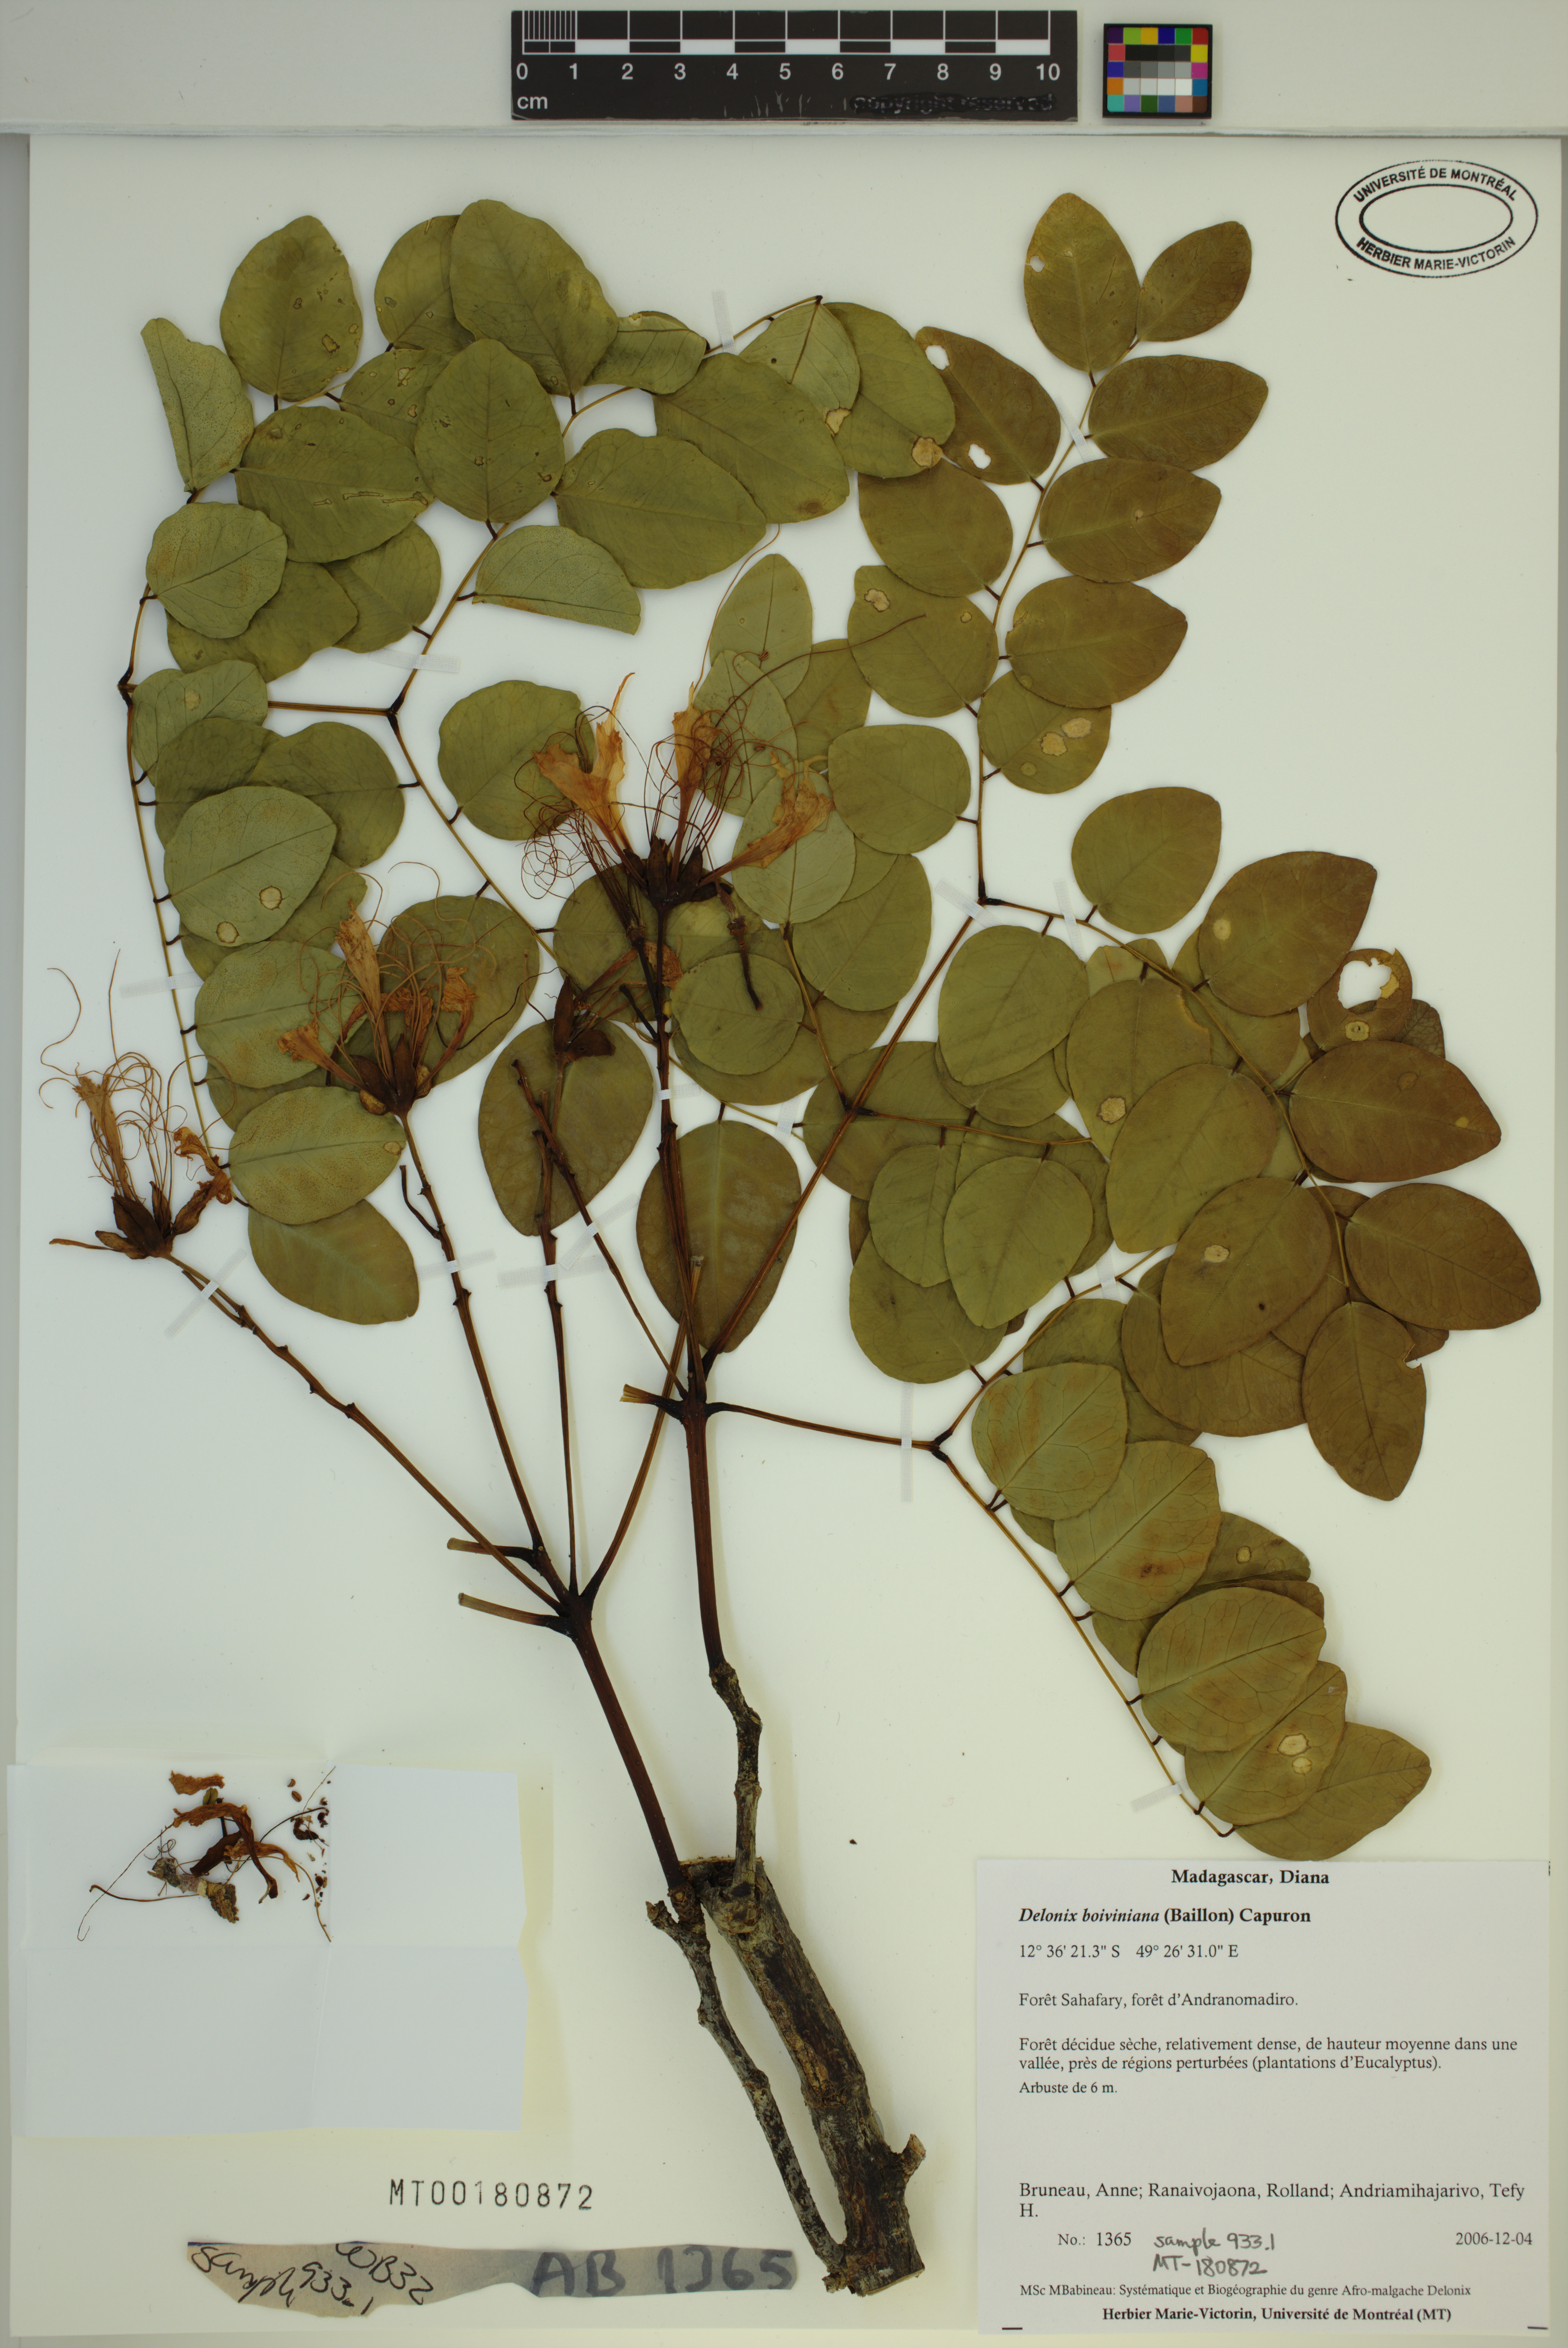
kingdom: Plantae
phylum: Tracheophyta
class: Magnoliopsida
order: Fabales
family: Fabaceae
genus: Delonix
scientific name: Delonix boiviniana
